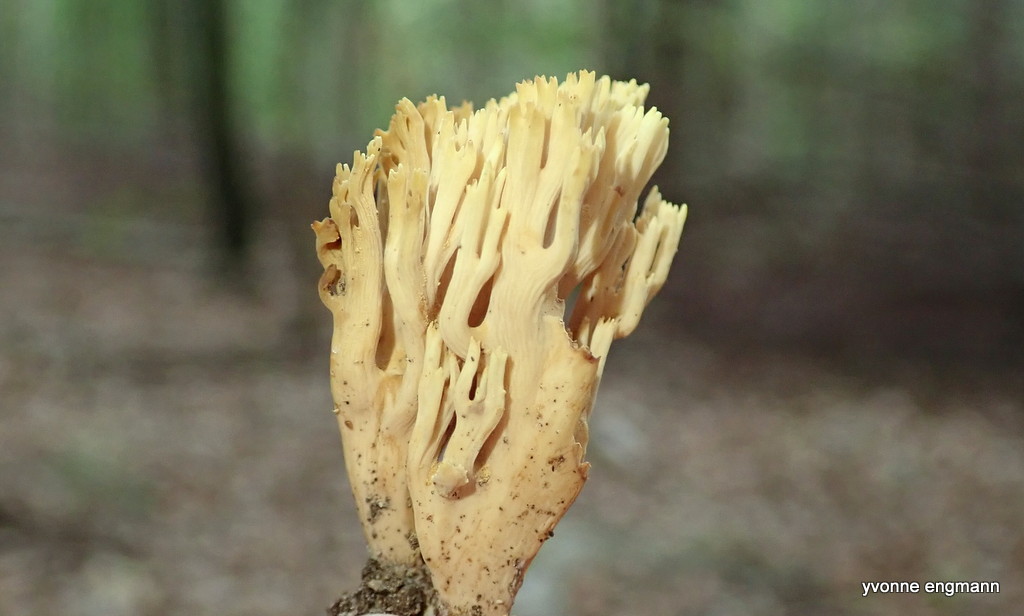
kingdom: Fungi
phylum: Basidiomycota
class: Agaricomycetes
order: Gomphales
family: Gomphaceae
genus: Ramaria
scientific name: Ramaria stricta
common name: rank koralsvamp
